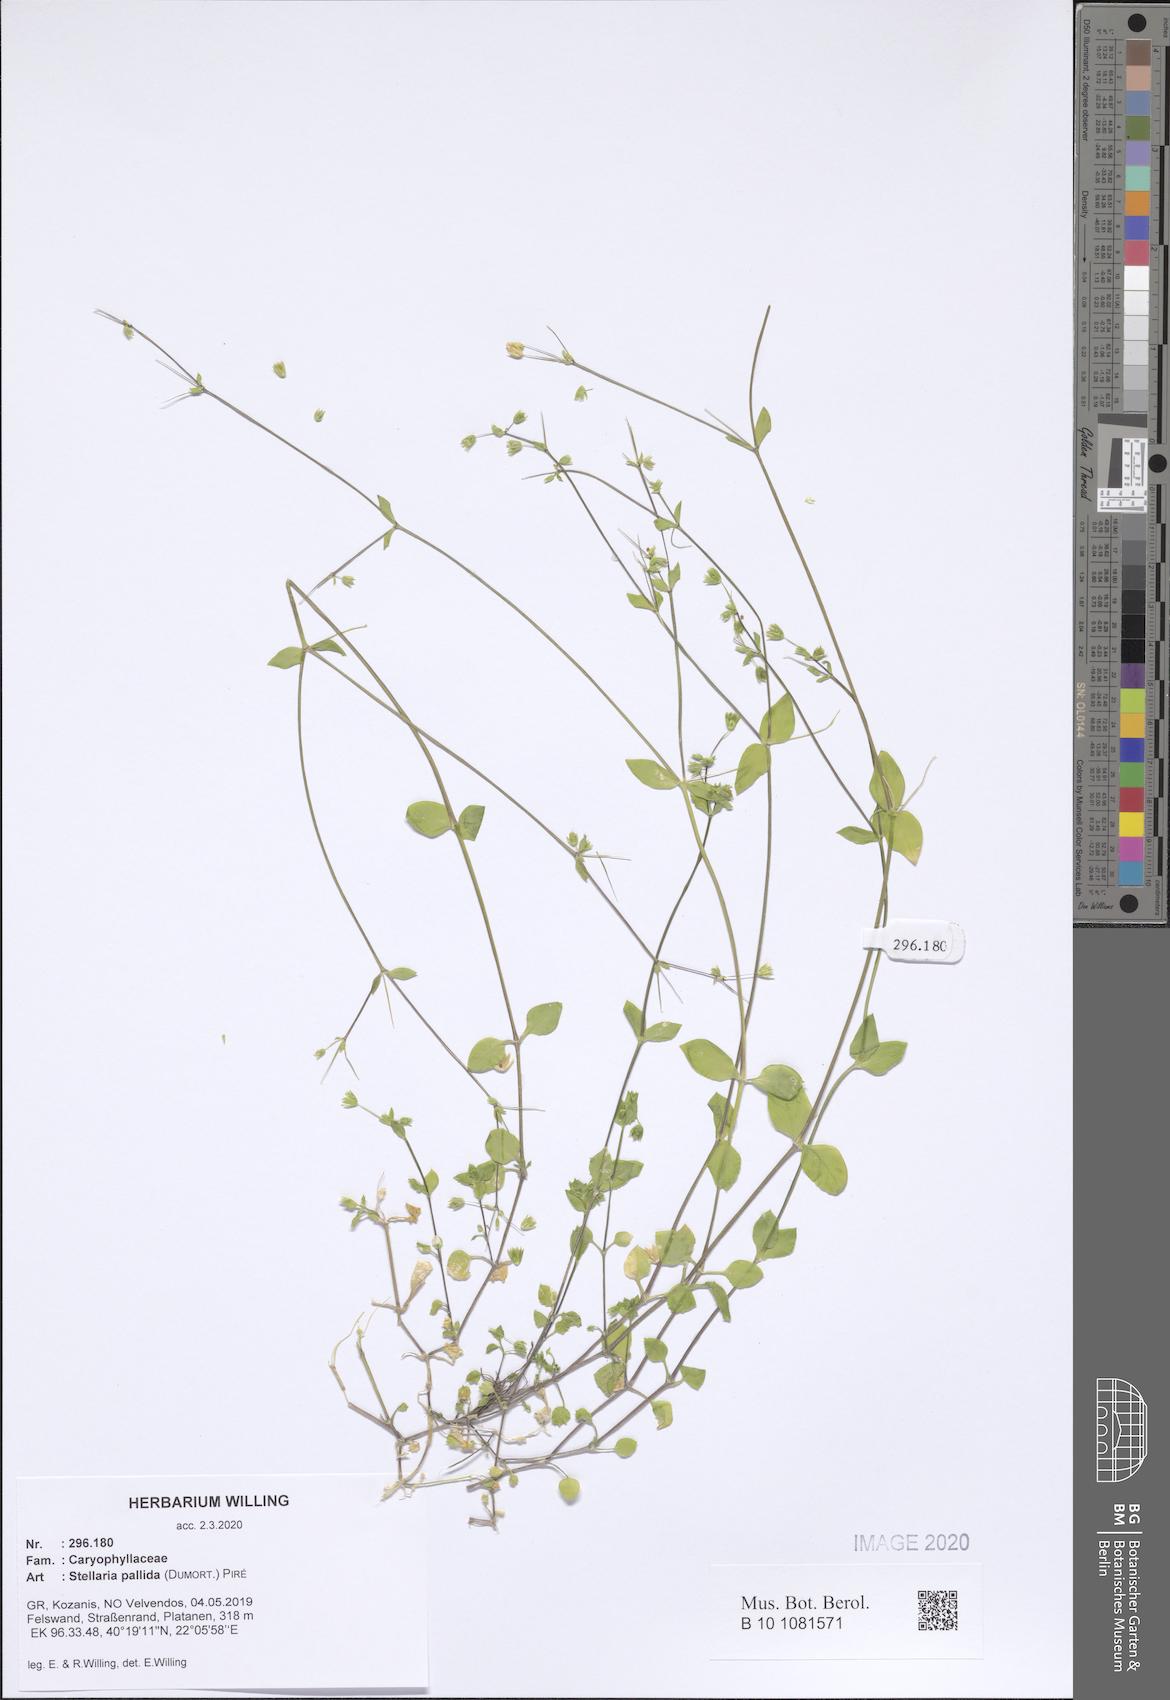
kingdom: Plantae
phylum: Tracheophyta
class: Magnoliopsida
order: Caryophyllales
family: Caryophyllaceae
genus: Stellaria
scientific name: Stellaria apetala
